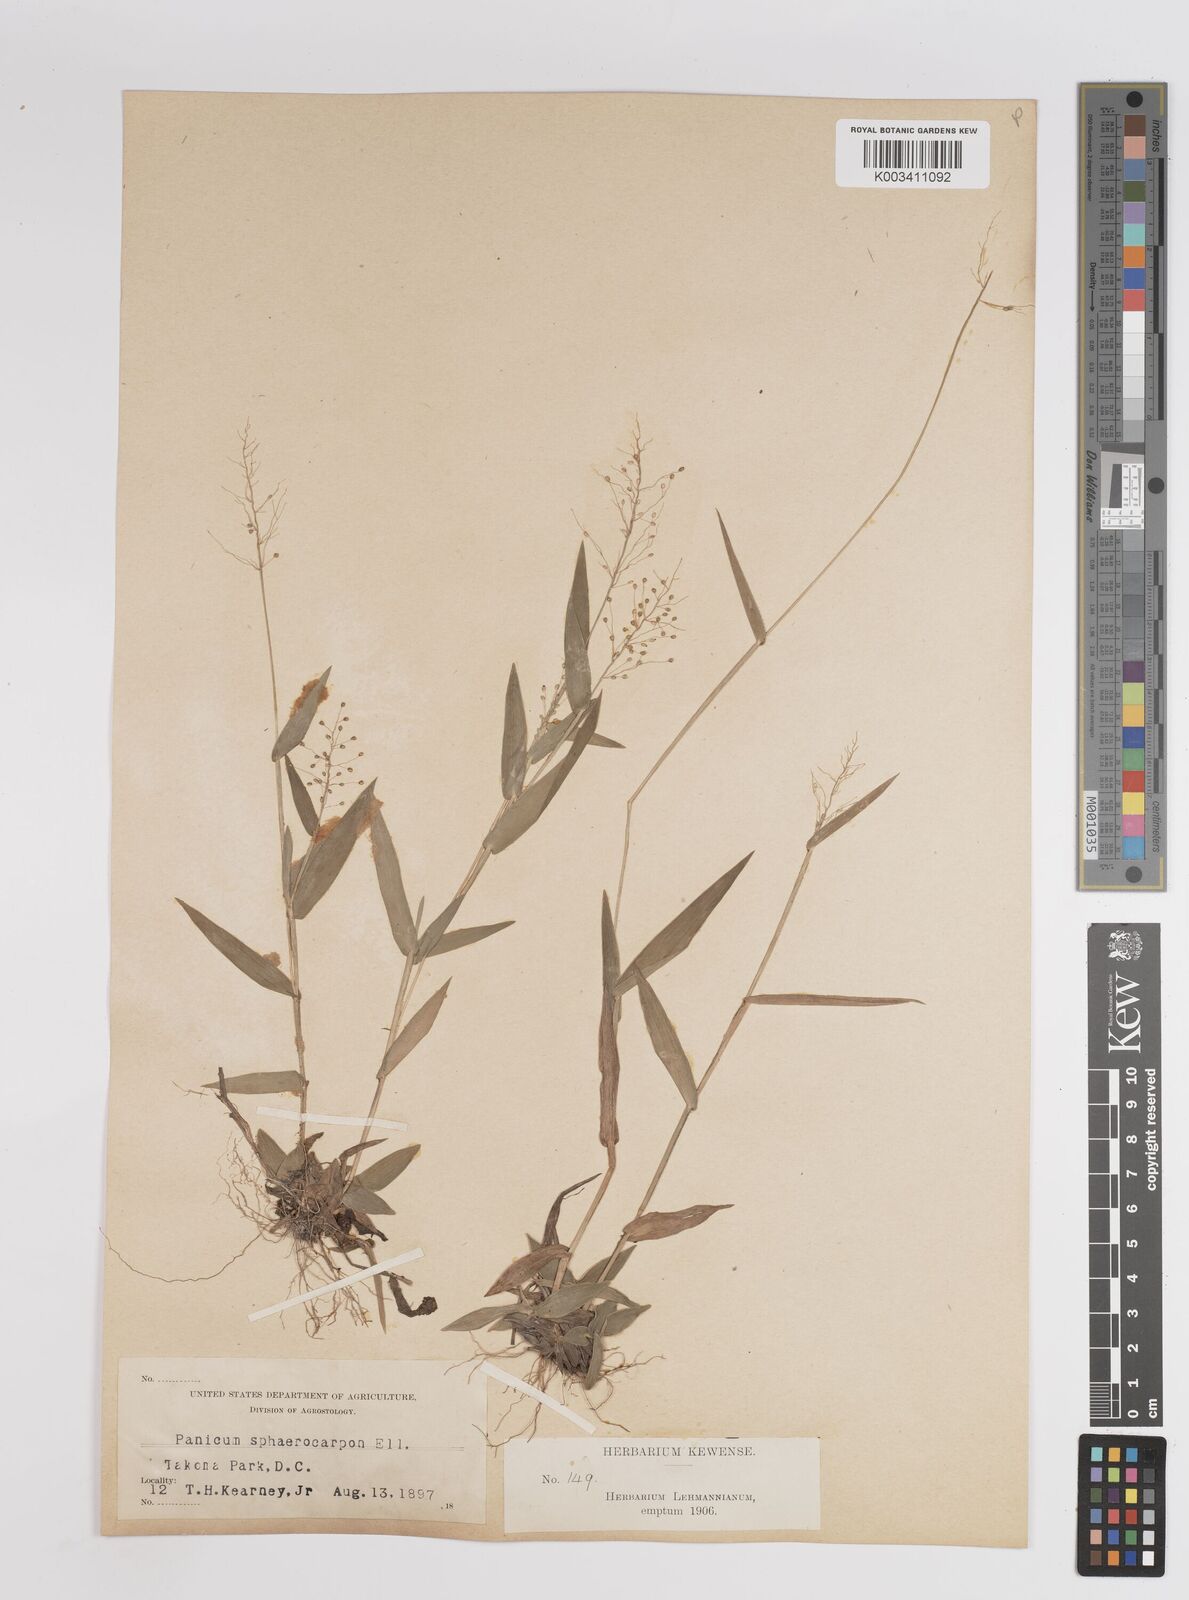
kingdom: Plantae
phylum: Tracheophyta
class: Liliopsida
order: Poales
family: Poaceae
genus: Dichanthelium
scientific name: Dichanthelium sphaerocarpon
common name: Round-fruited panicgrass
